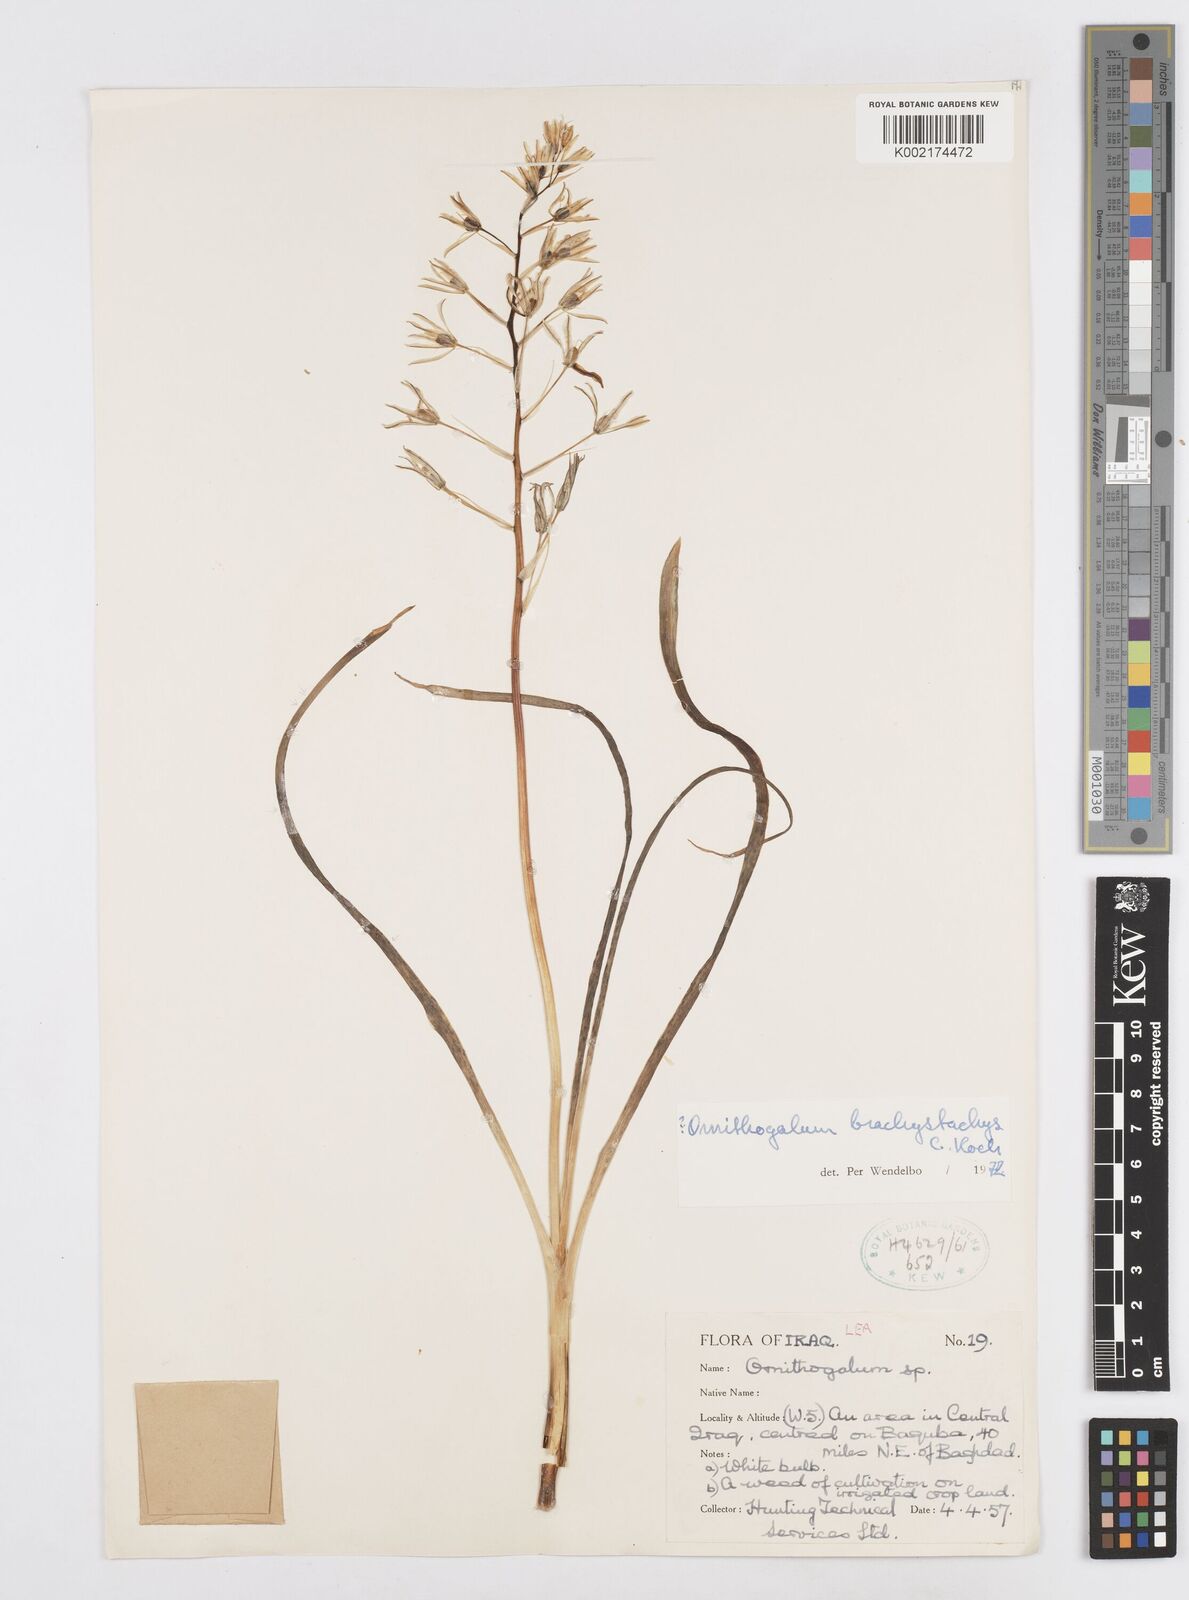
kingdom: Plantae
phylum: Tracheophyta
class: Liliopsida
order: Asparagales
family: Asparagaceae
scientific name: Asparagaceae
